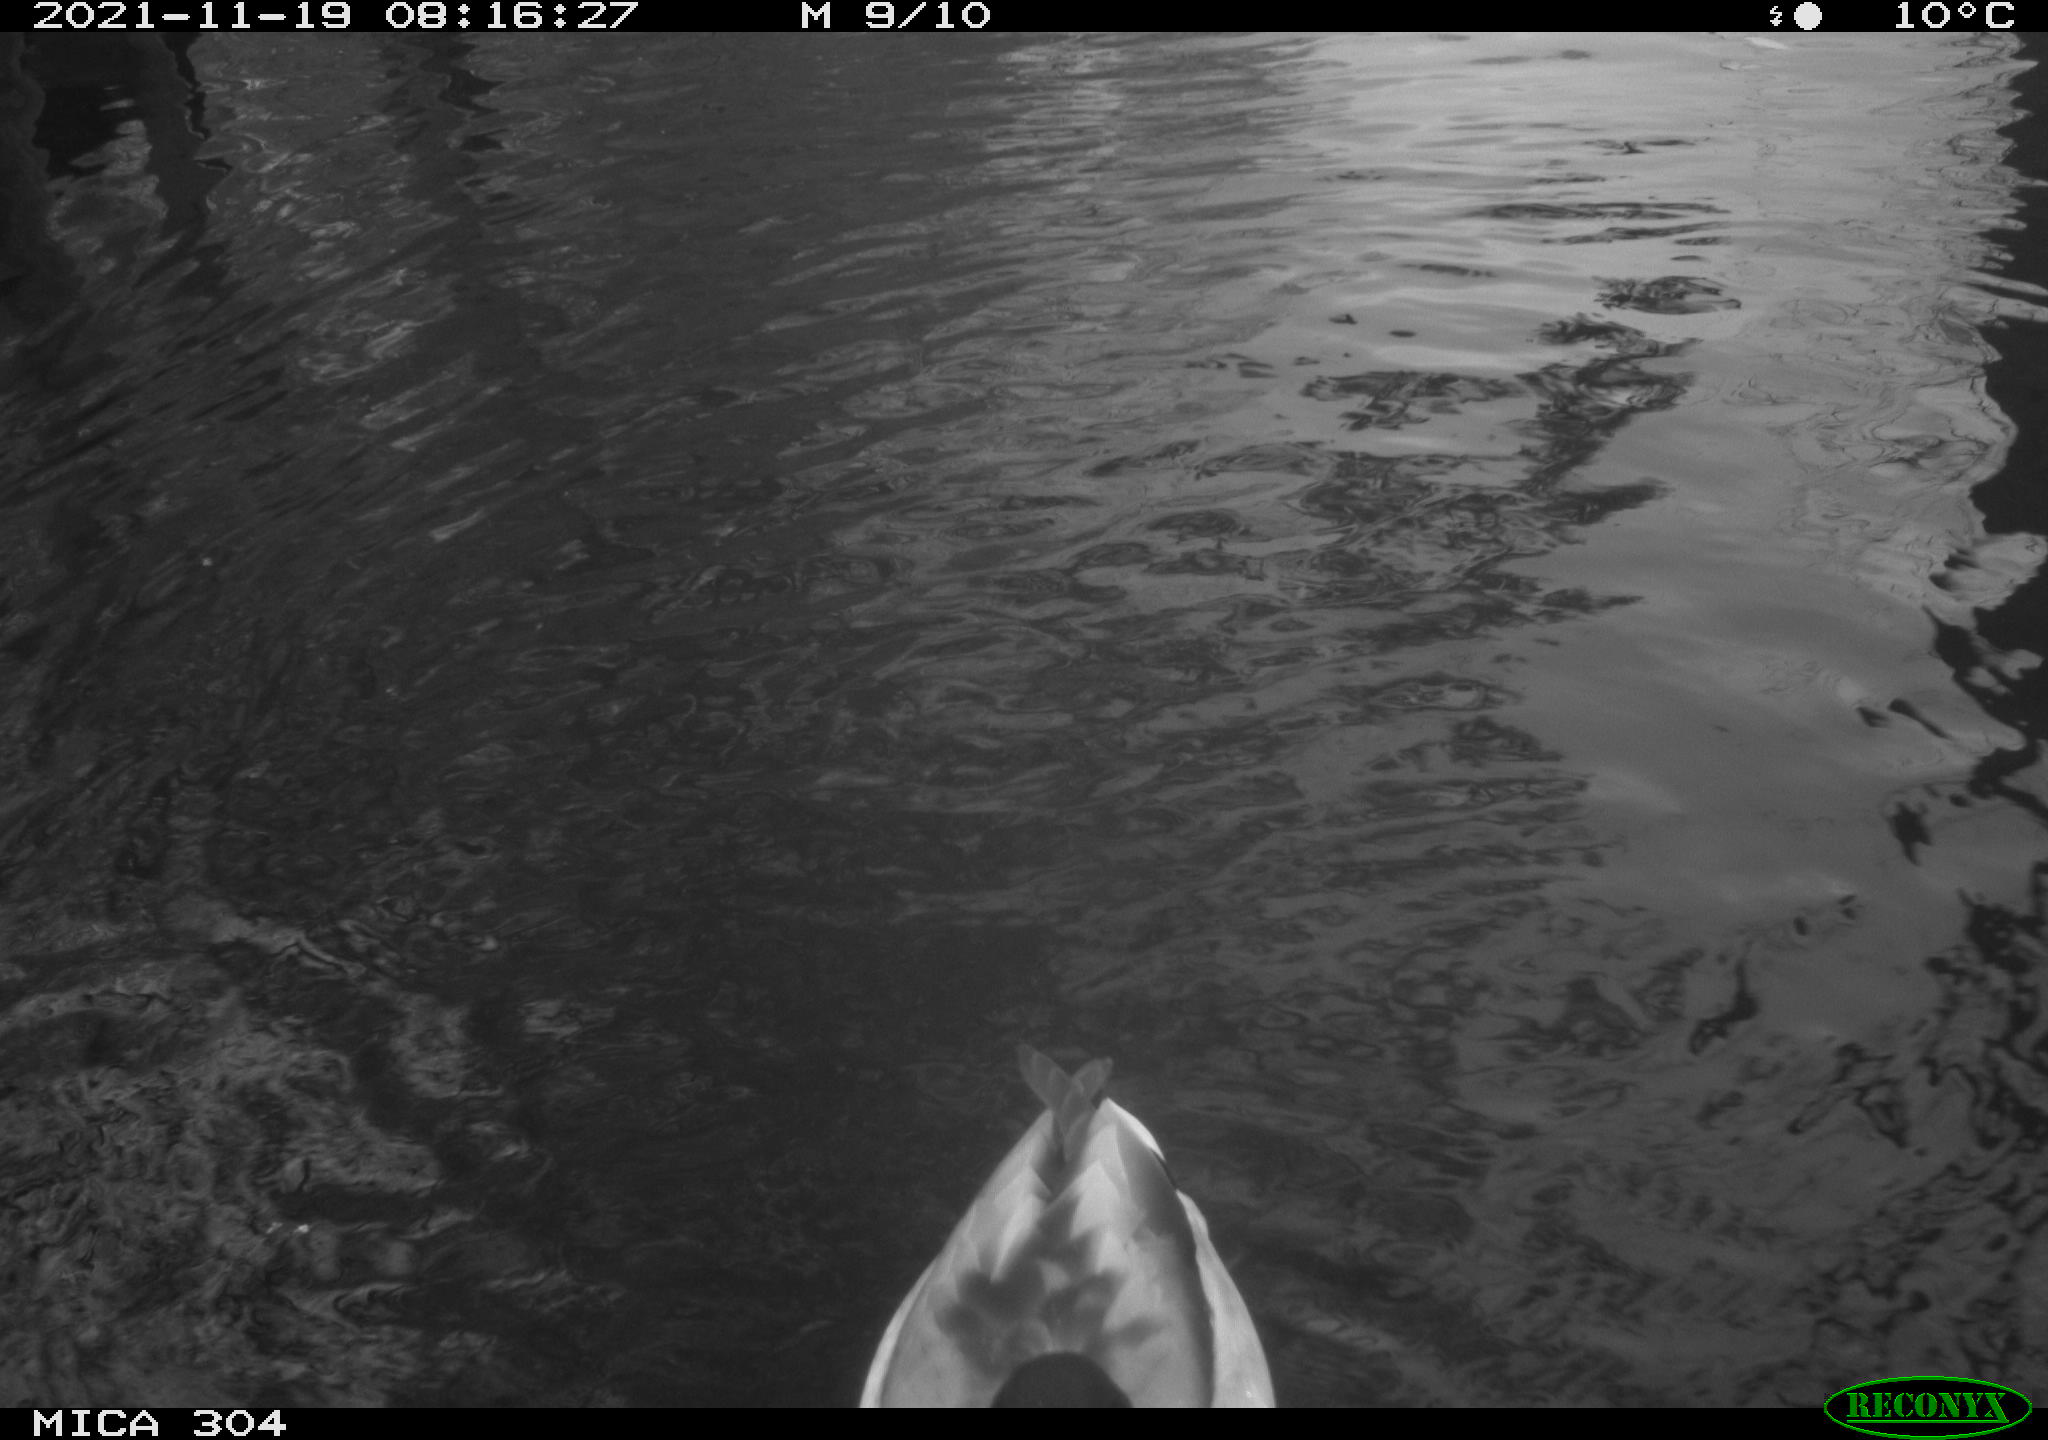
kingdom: Animalia
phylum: Chordata
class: Aves
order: Anseriformes
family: Anatidae
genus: Anas
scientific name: Anas platyrhynchos
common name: Mallard
